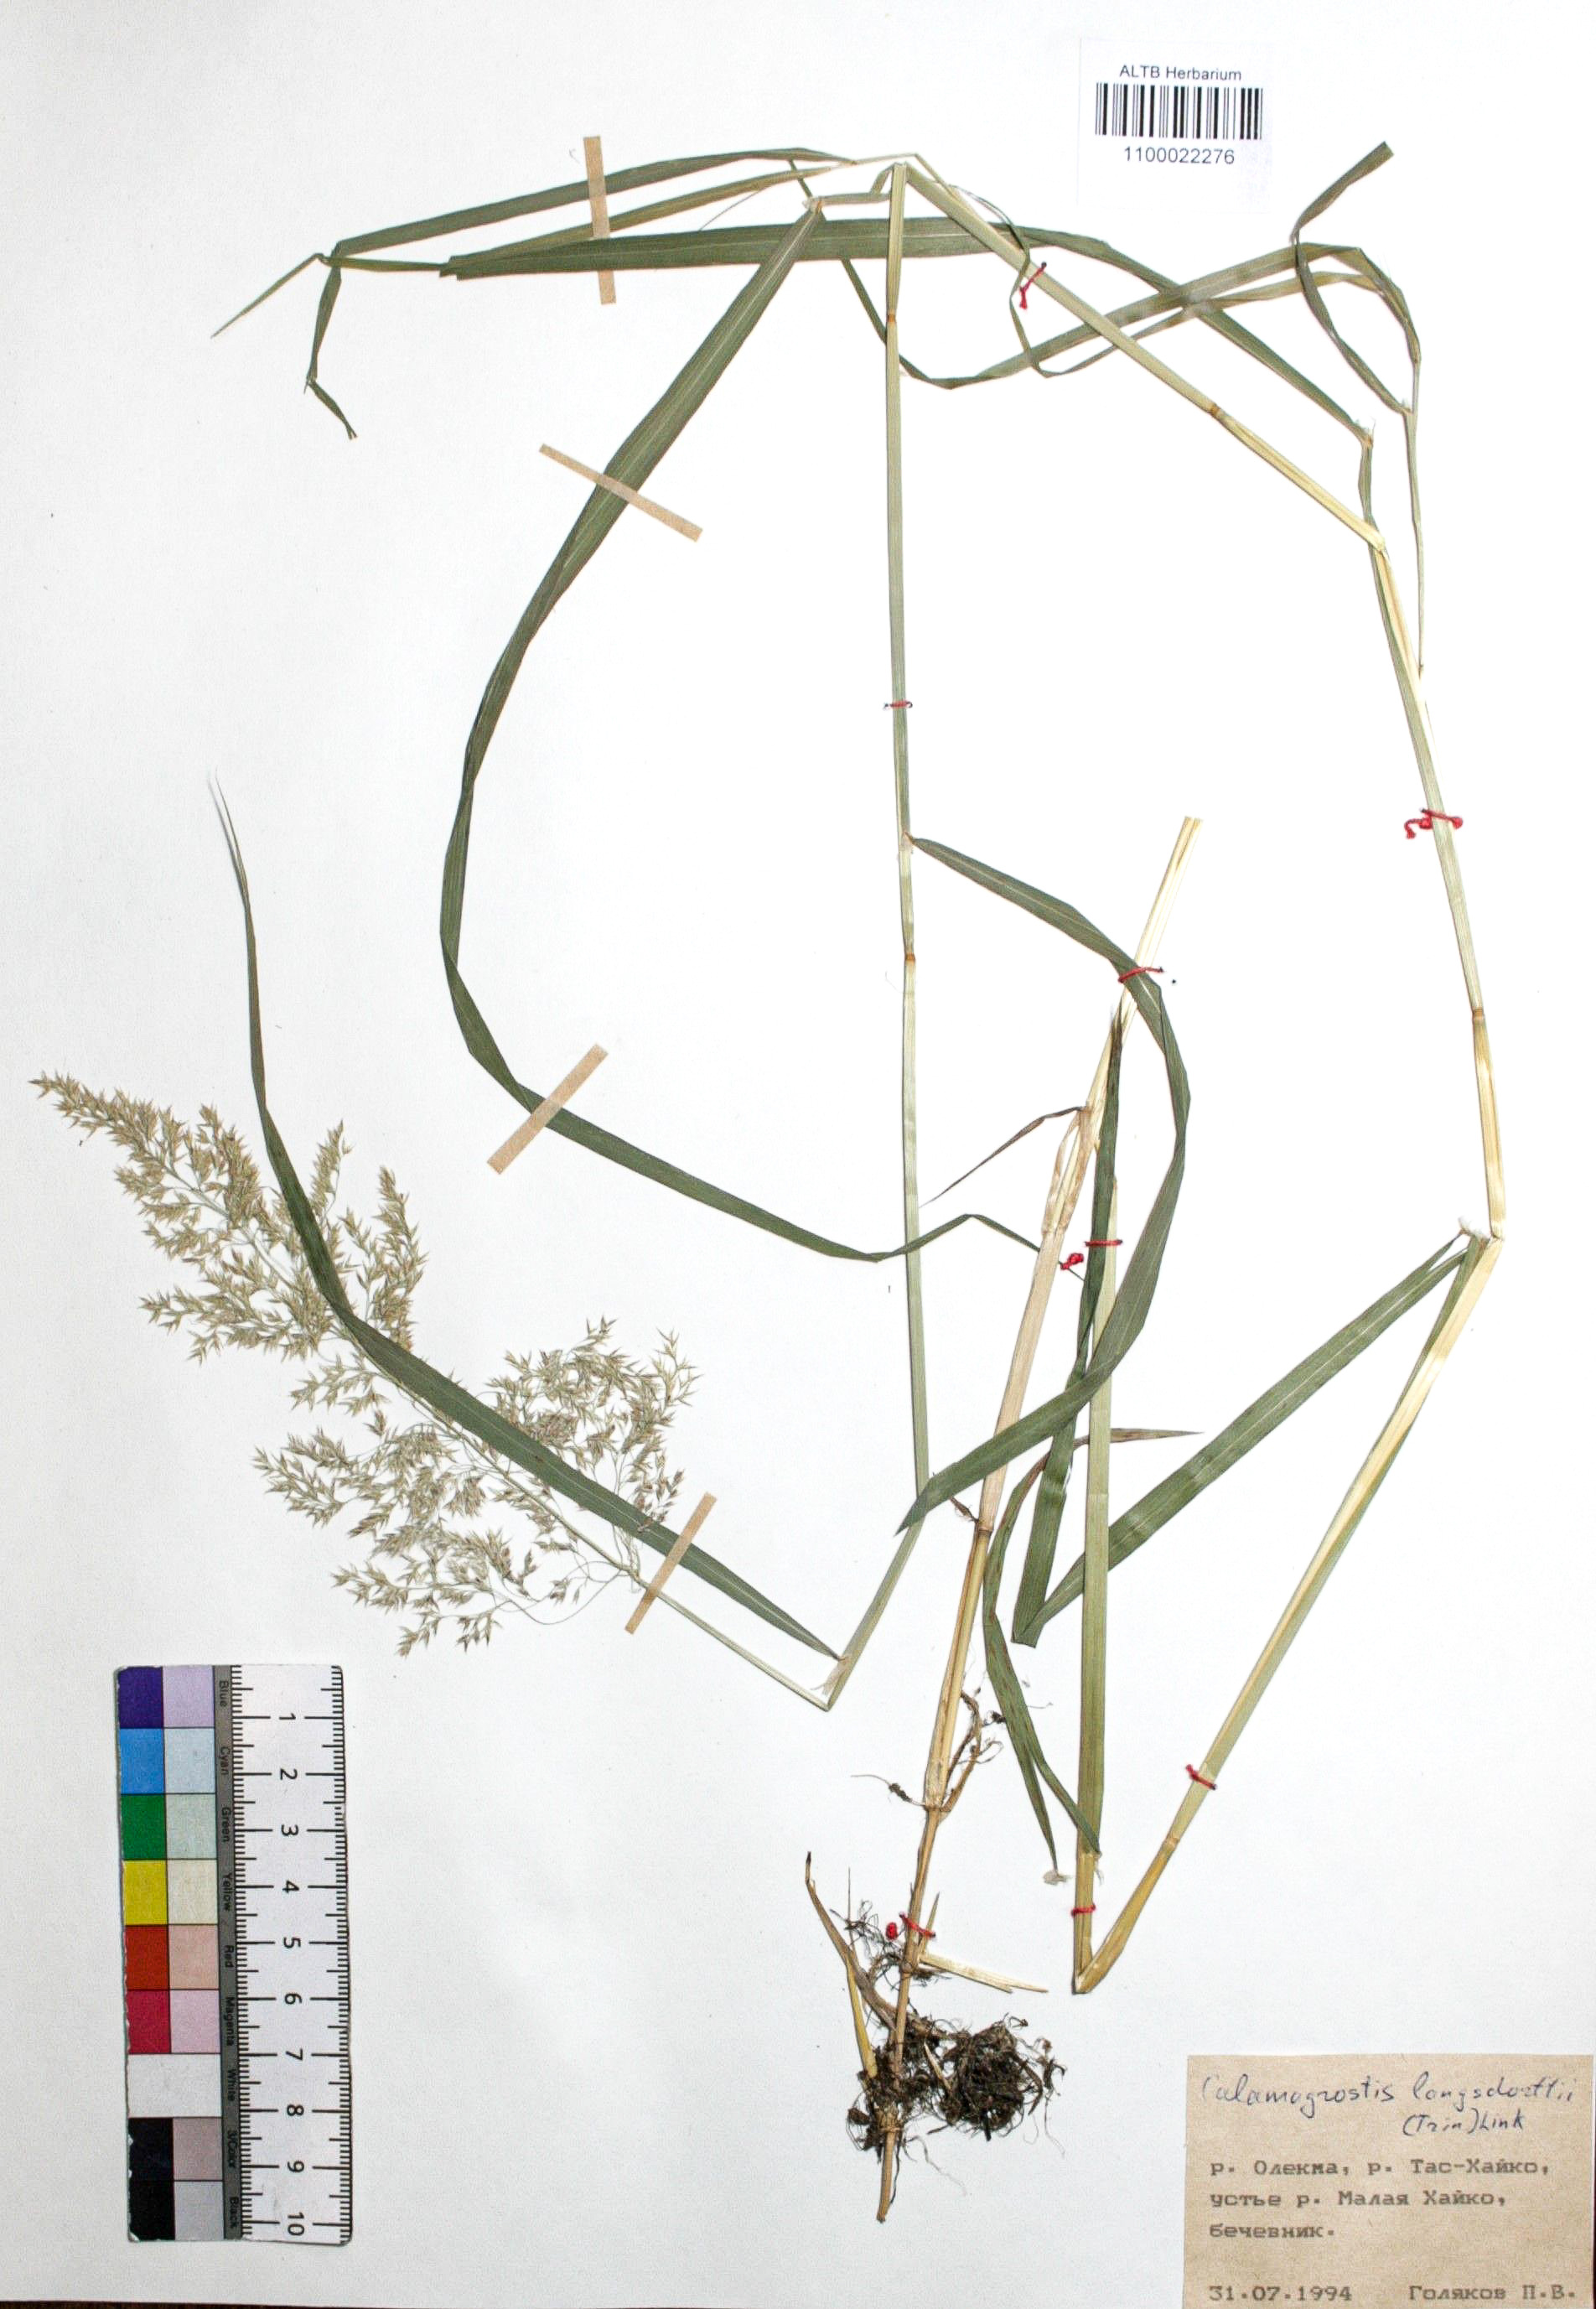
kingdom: Plantae
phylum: Tracheophyta
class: Liliopsida
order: Poales
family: Poaceae
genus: Calamagrostis
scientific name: Calamagrostis purpurea
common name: Scandinavian small-reed
